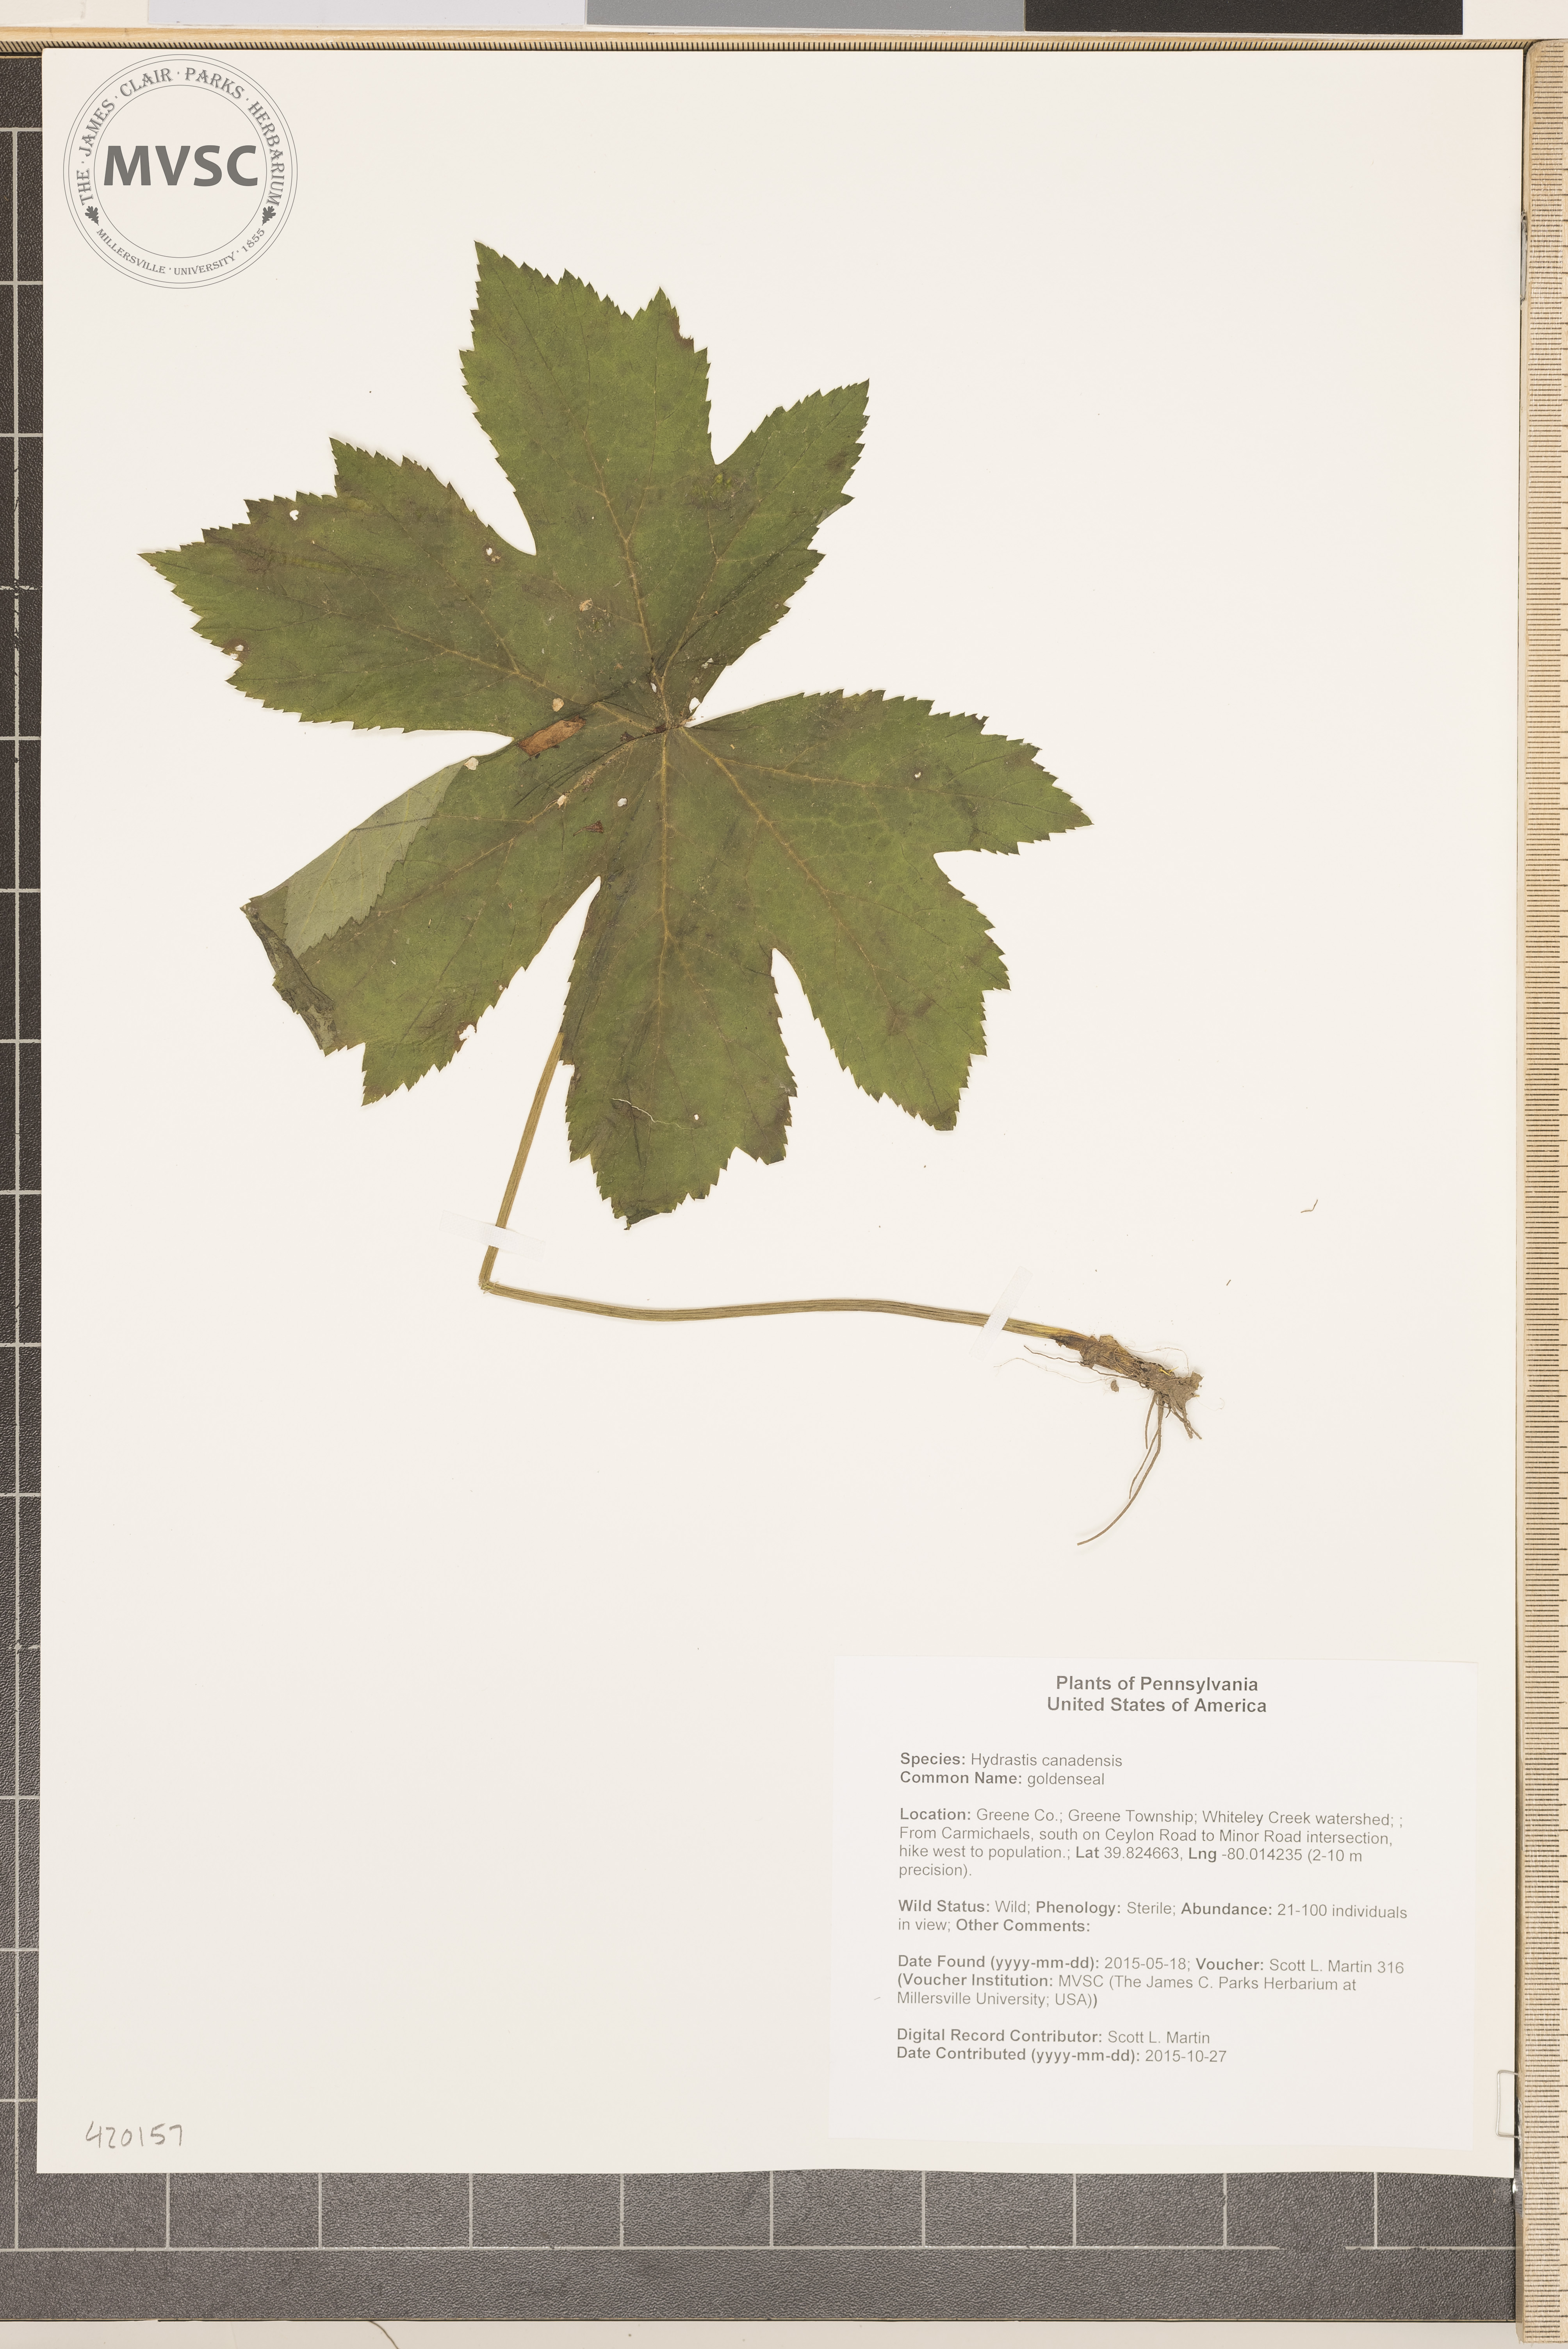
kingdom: Plantae
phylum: Tracheophyta
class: Magnoliopsida
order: Ranunculales
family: Ranunculaceae
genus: Hydrastis
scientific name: Hydrastis canadensis
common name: goldenseal
